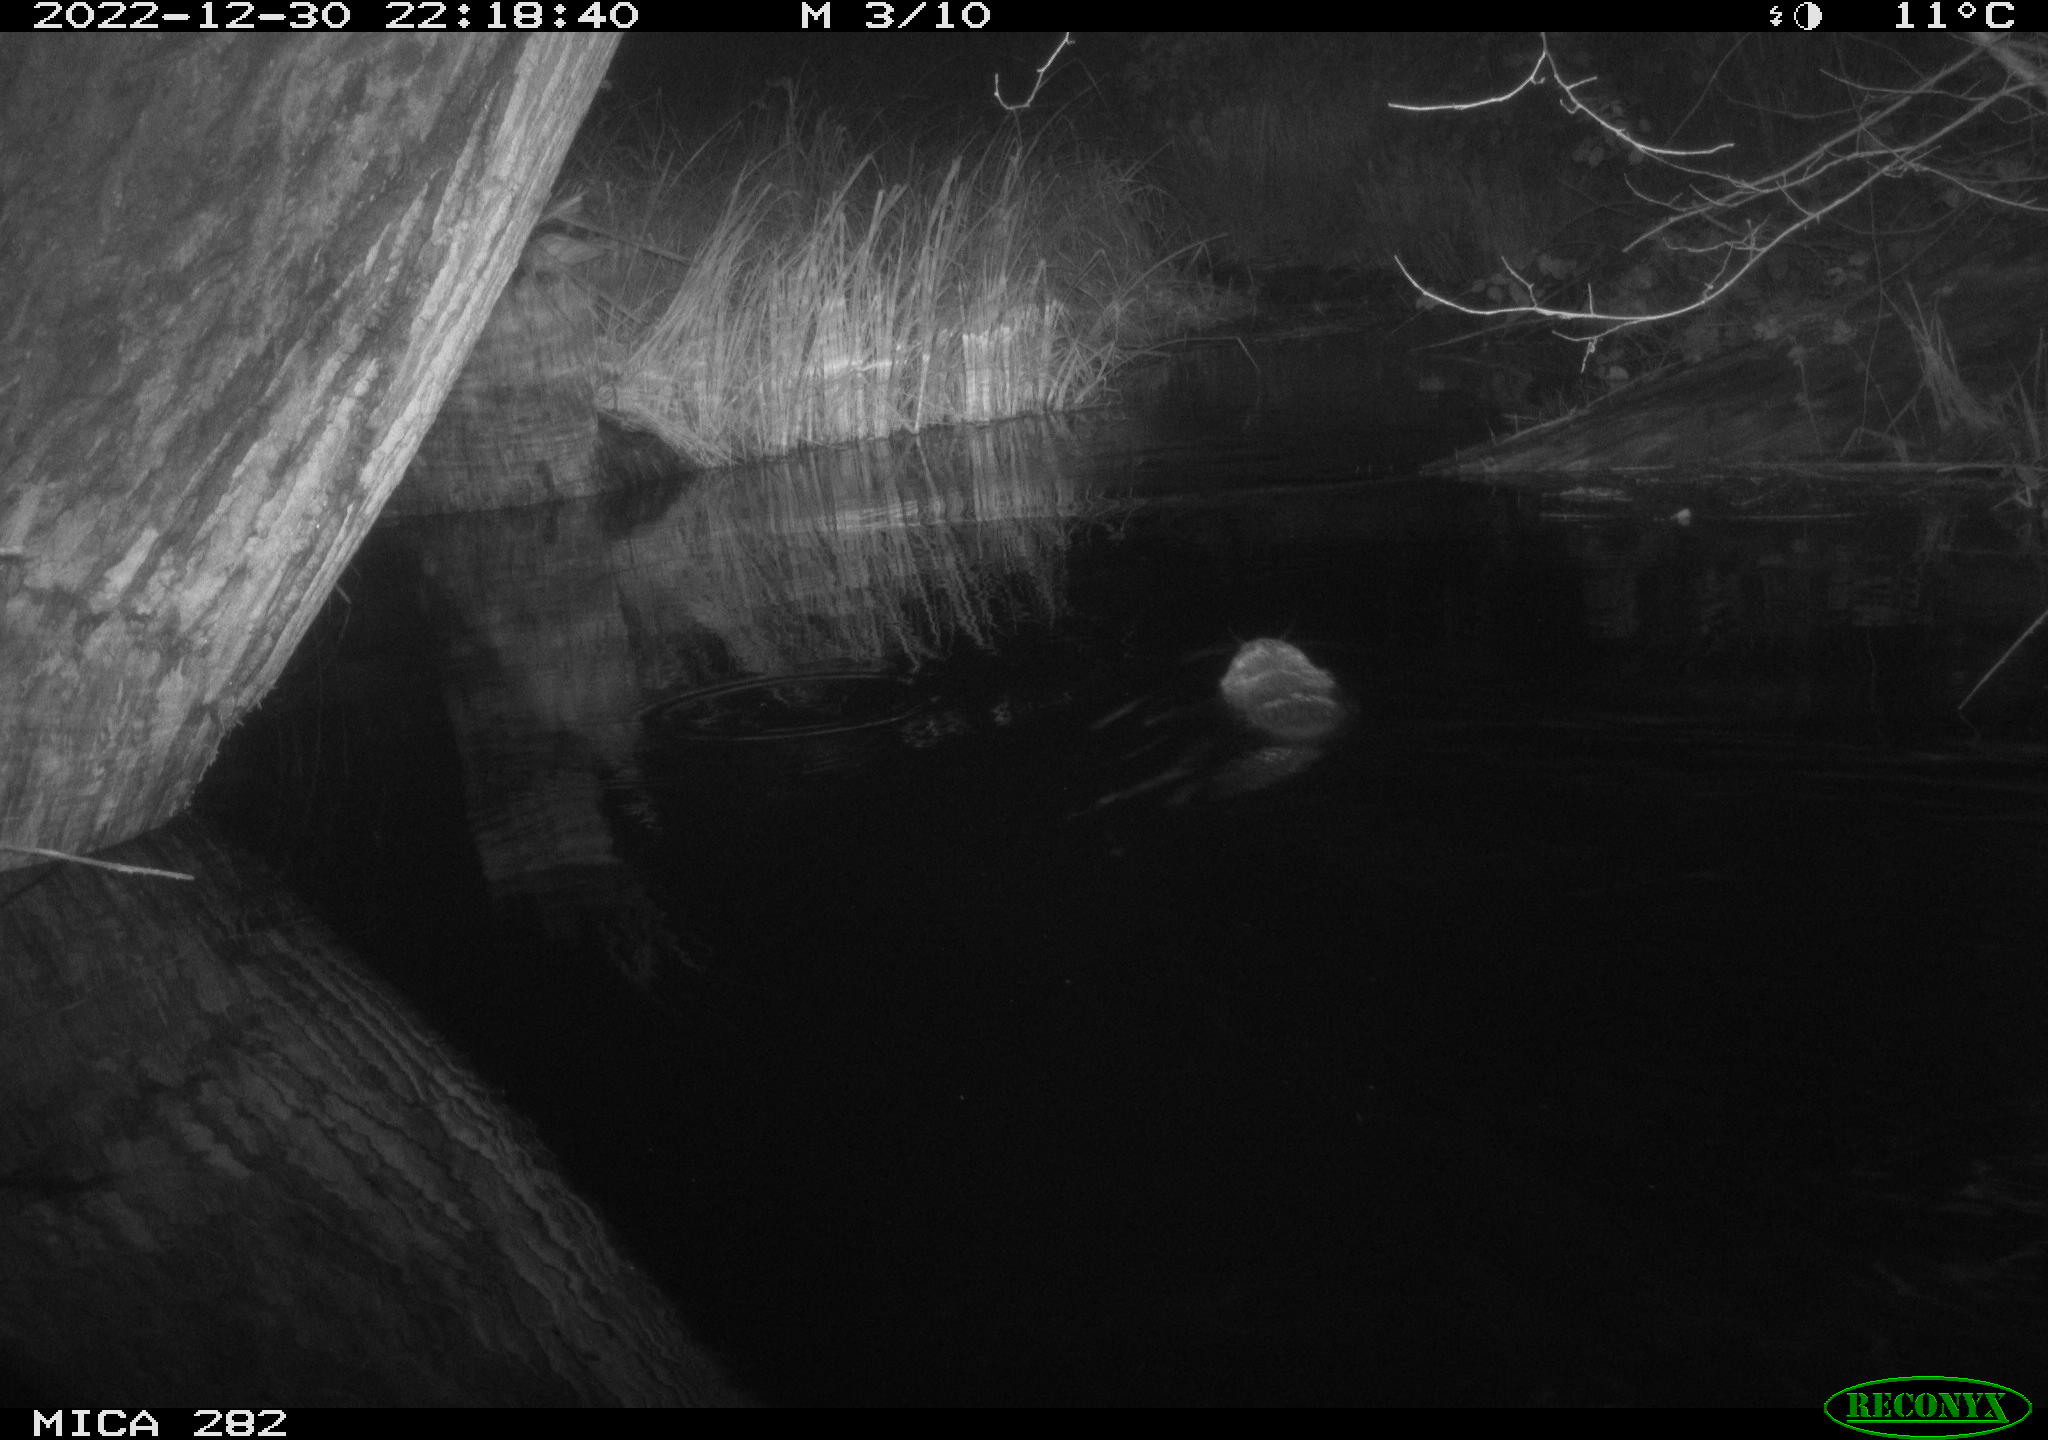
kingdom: Animalia
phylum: Chordata
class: Mammalia
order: Rodentia
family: Castoridae
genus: Castor
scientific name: Castor fiber
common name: Eurasian beaver
